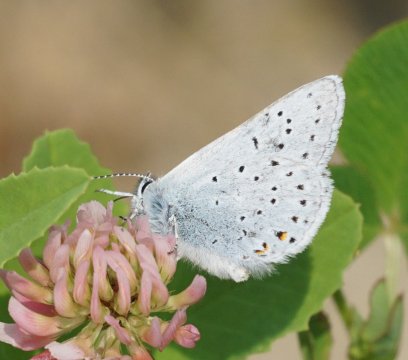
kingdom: Animalia
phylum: Arthropoda
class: Insecta
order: Lepidoptera
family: Lycaenidae
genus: Plebejus
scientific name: Plebejus saepiolus
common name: Greenish Blue
